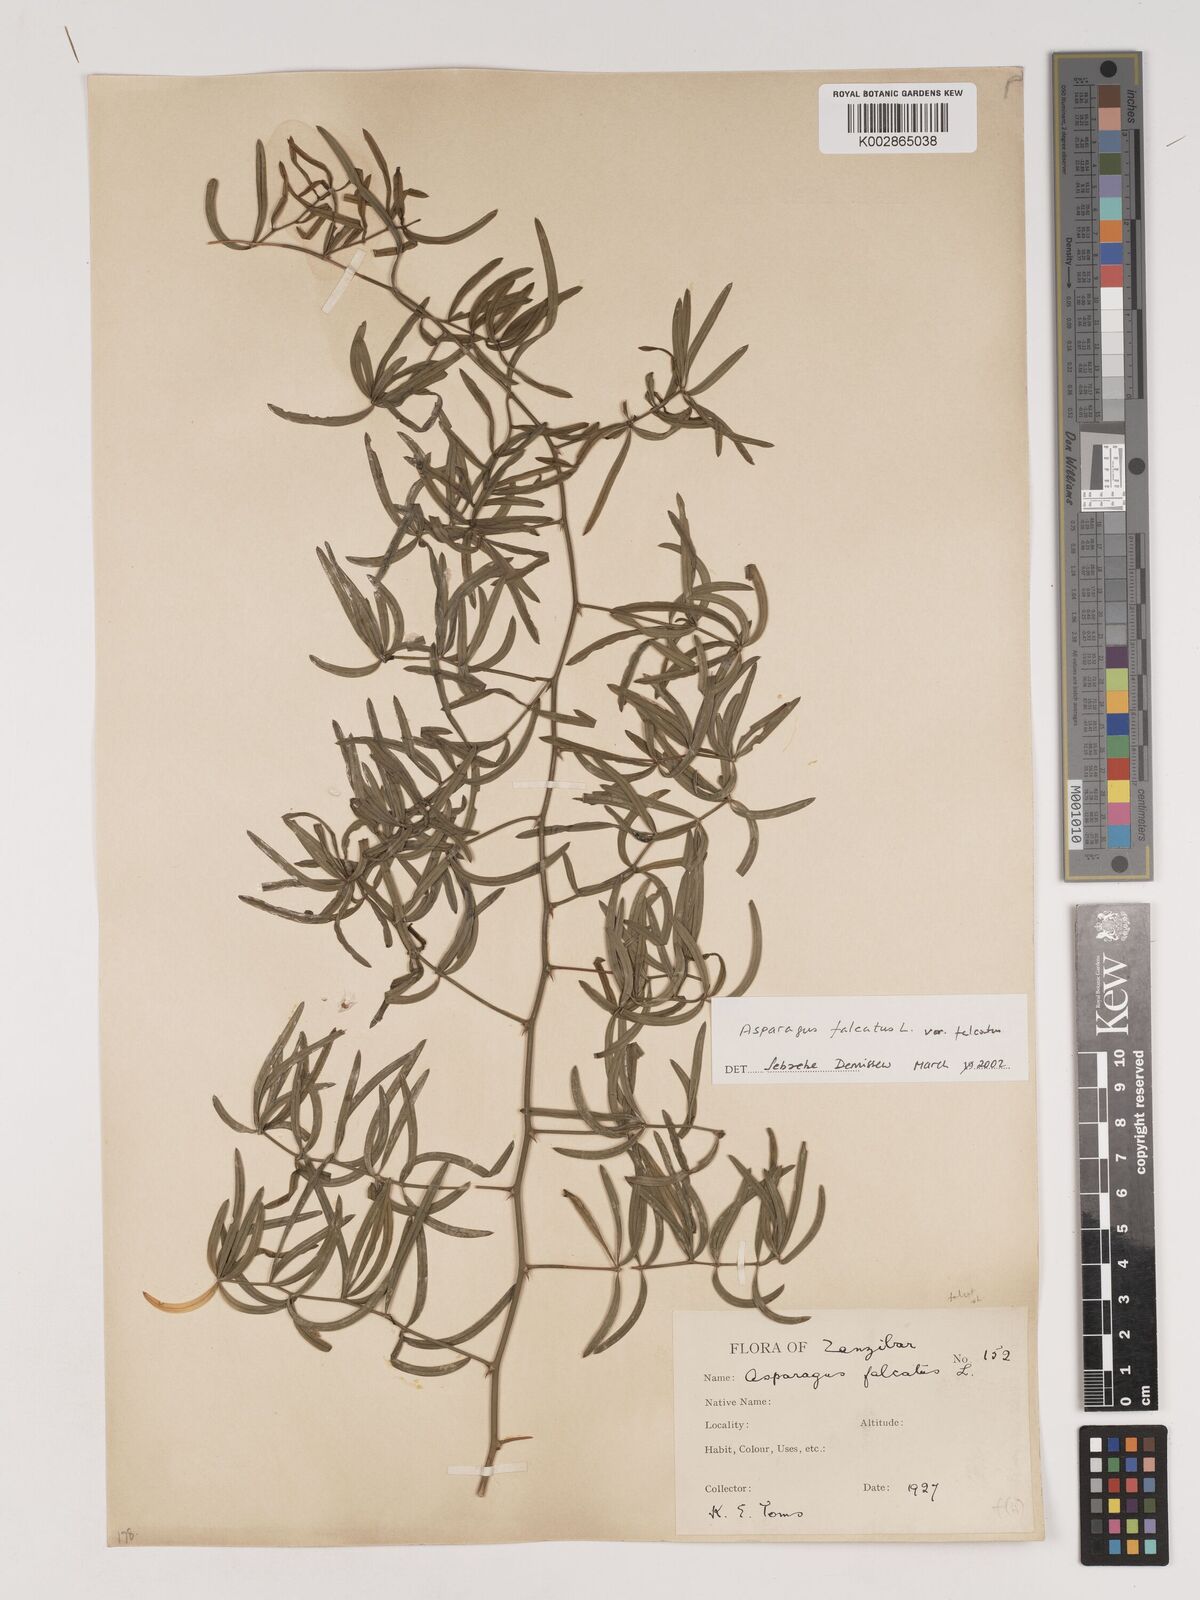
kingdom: Plantae
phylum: Tracheophyta
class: Liliopsida
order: Asparagales
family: Asparagaceae
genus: Asparagus
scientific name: Asparagus falcatus
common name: Asparagus
